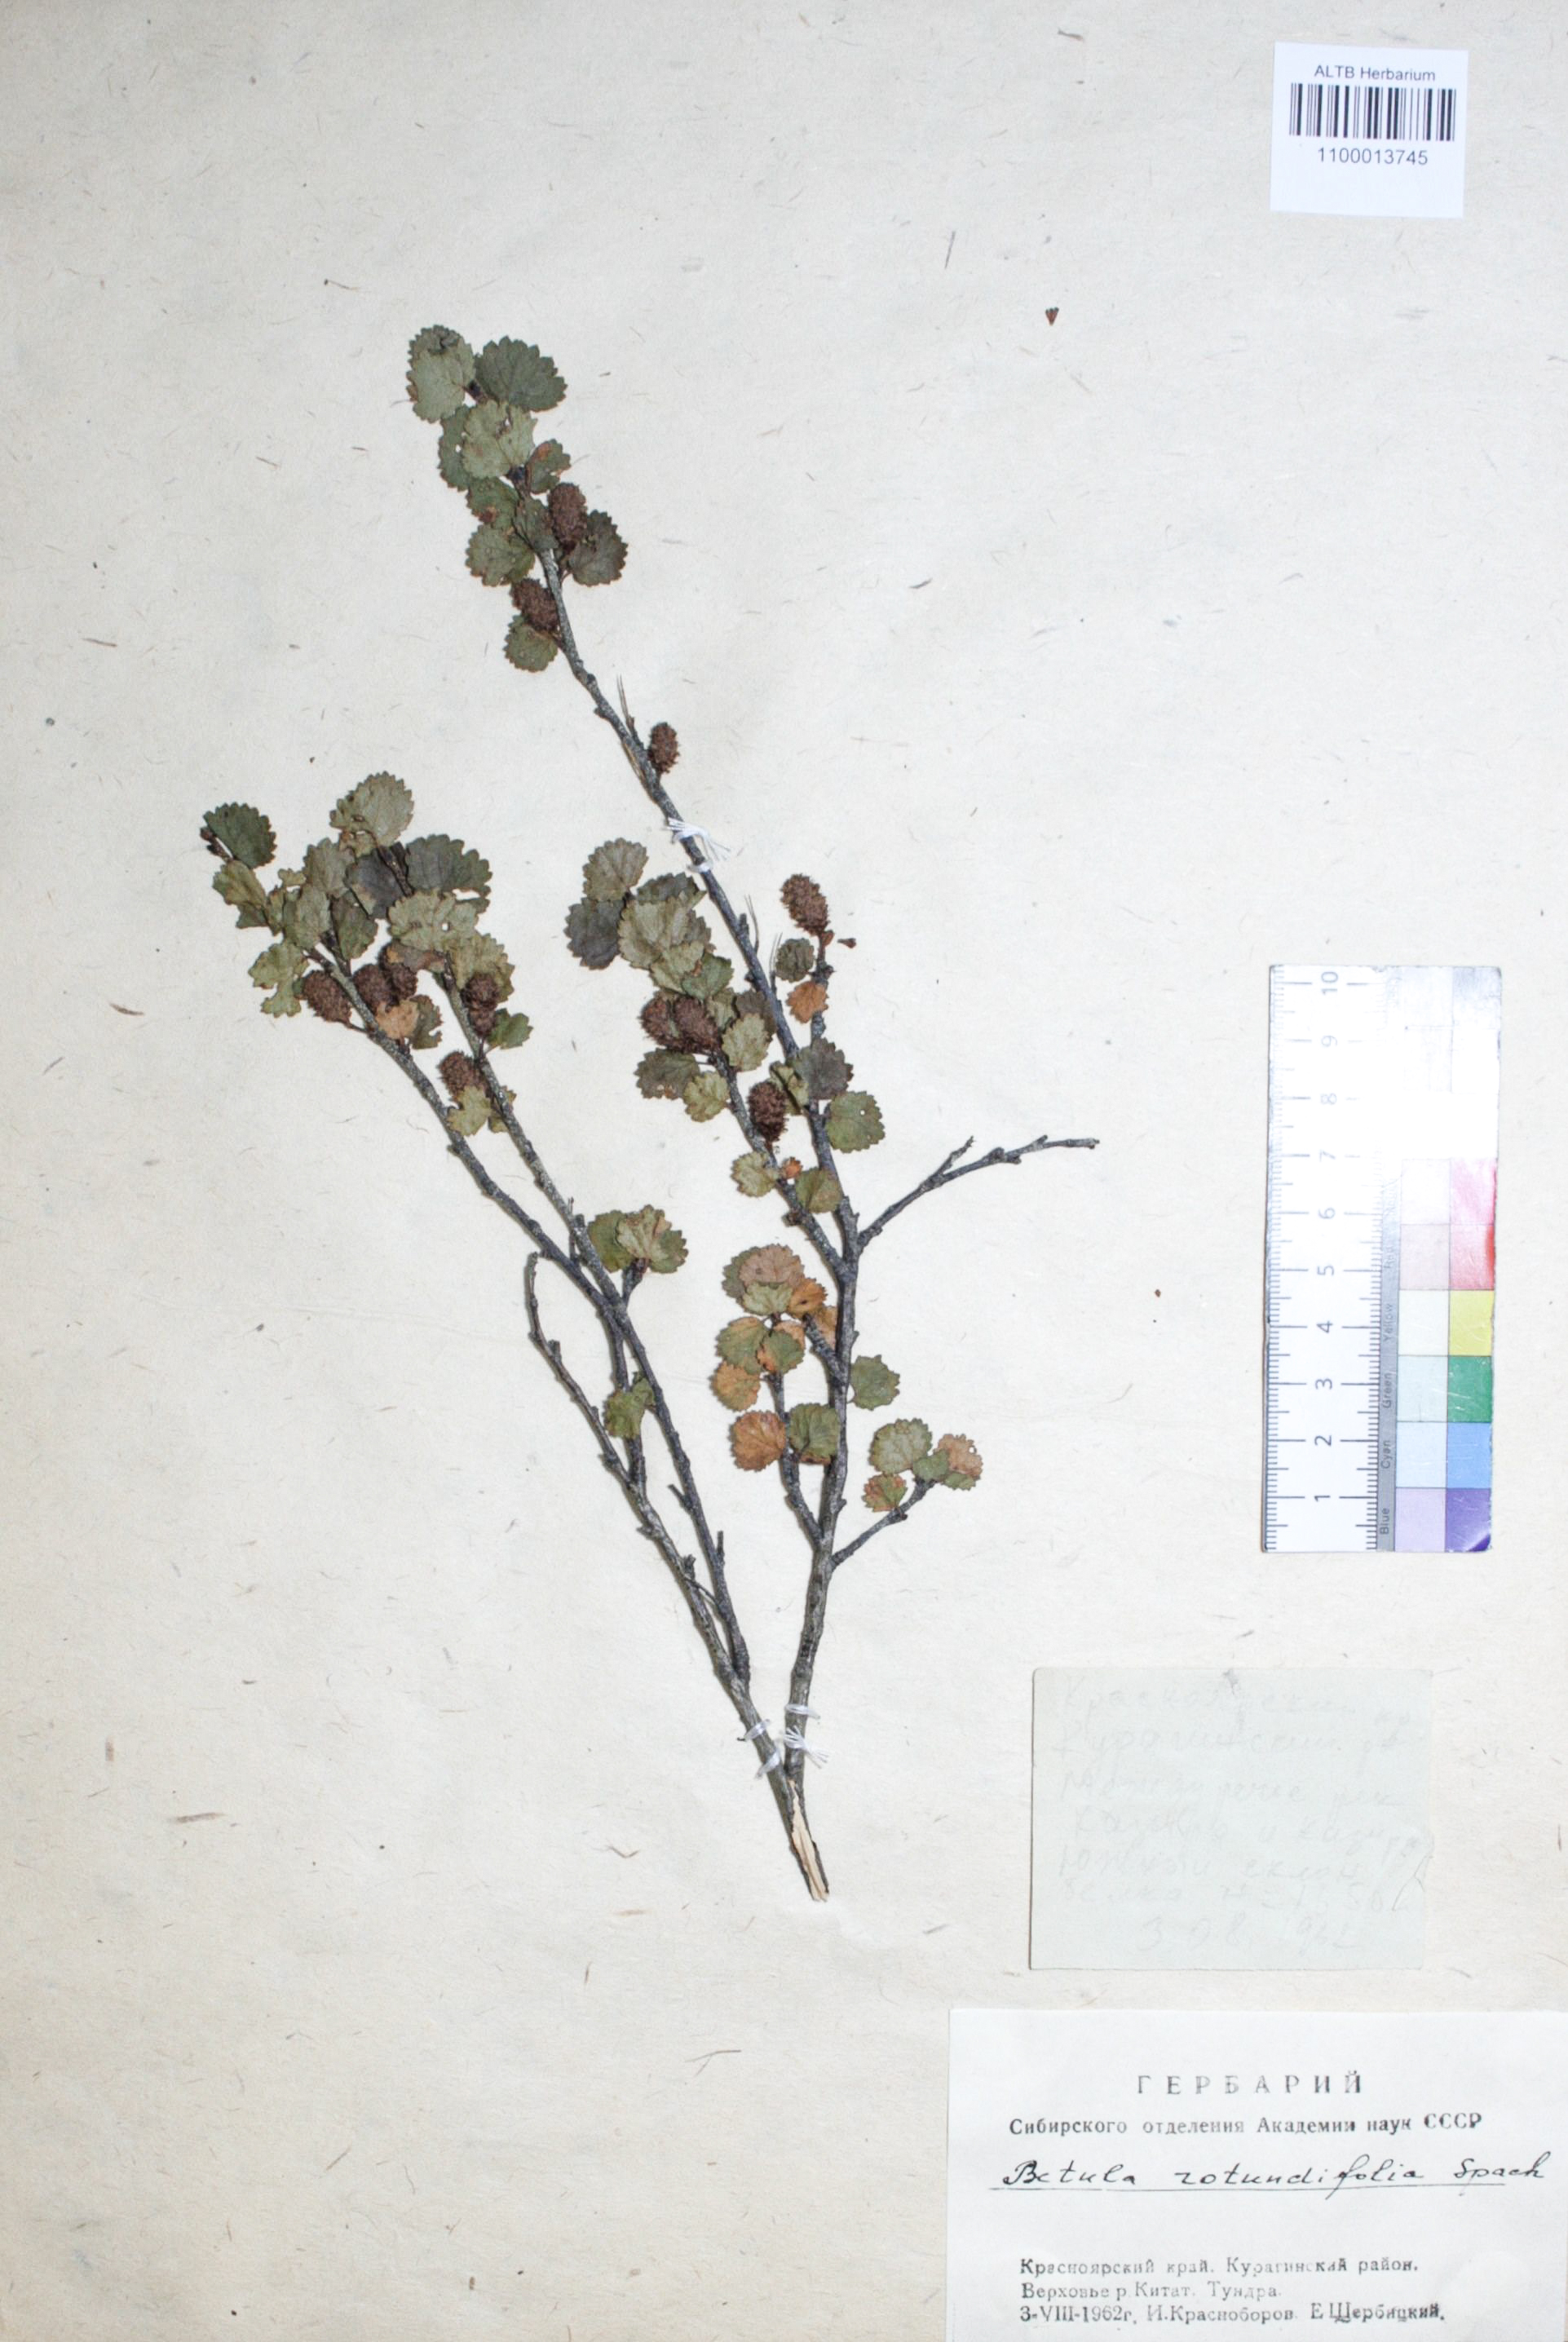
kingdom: Plantae
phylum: Tracheophyta
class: Magnoliopsida
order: Fagales
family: Betulaceae
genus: Betula
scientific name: Betula glandulosa
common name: Dwarf birch
